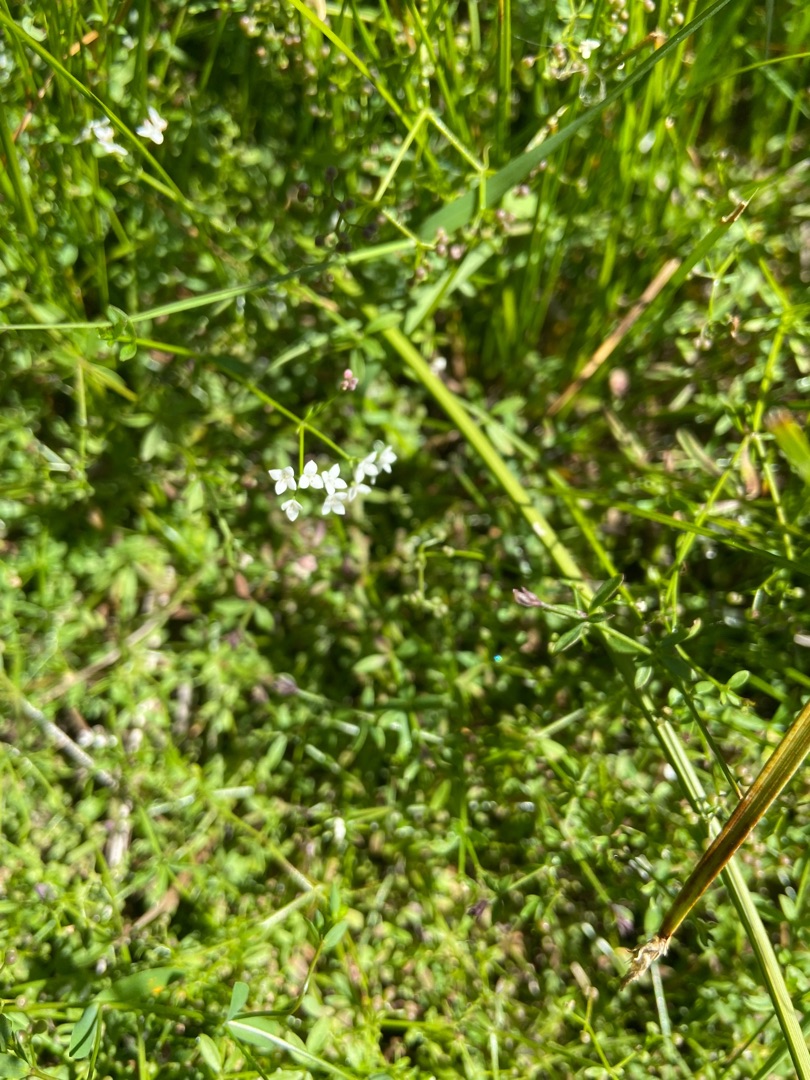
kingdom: Plantae
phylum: Tracheophyta
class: Magnoliopsida
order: Gentianales
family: Rubiaceae
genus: Galium
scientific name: Galium palustre
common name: Kær-snerre
